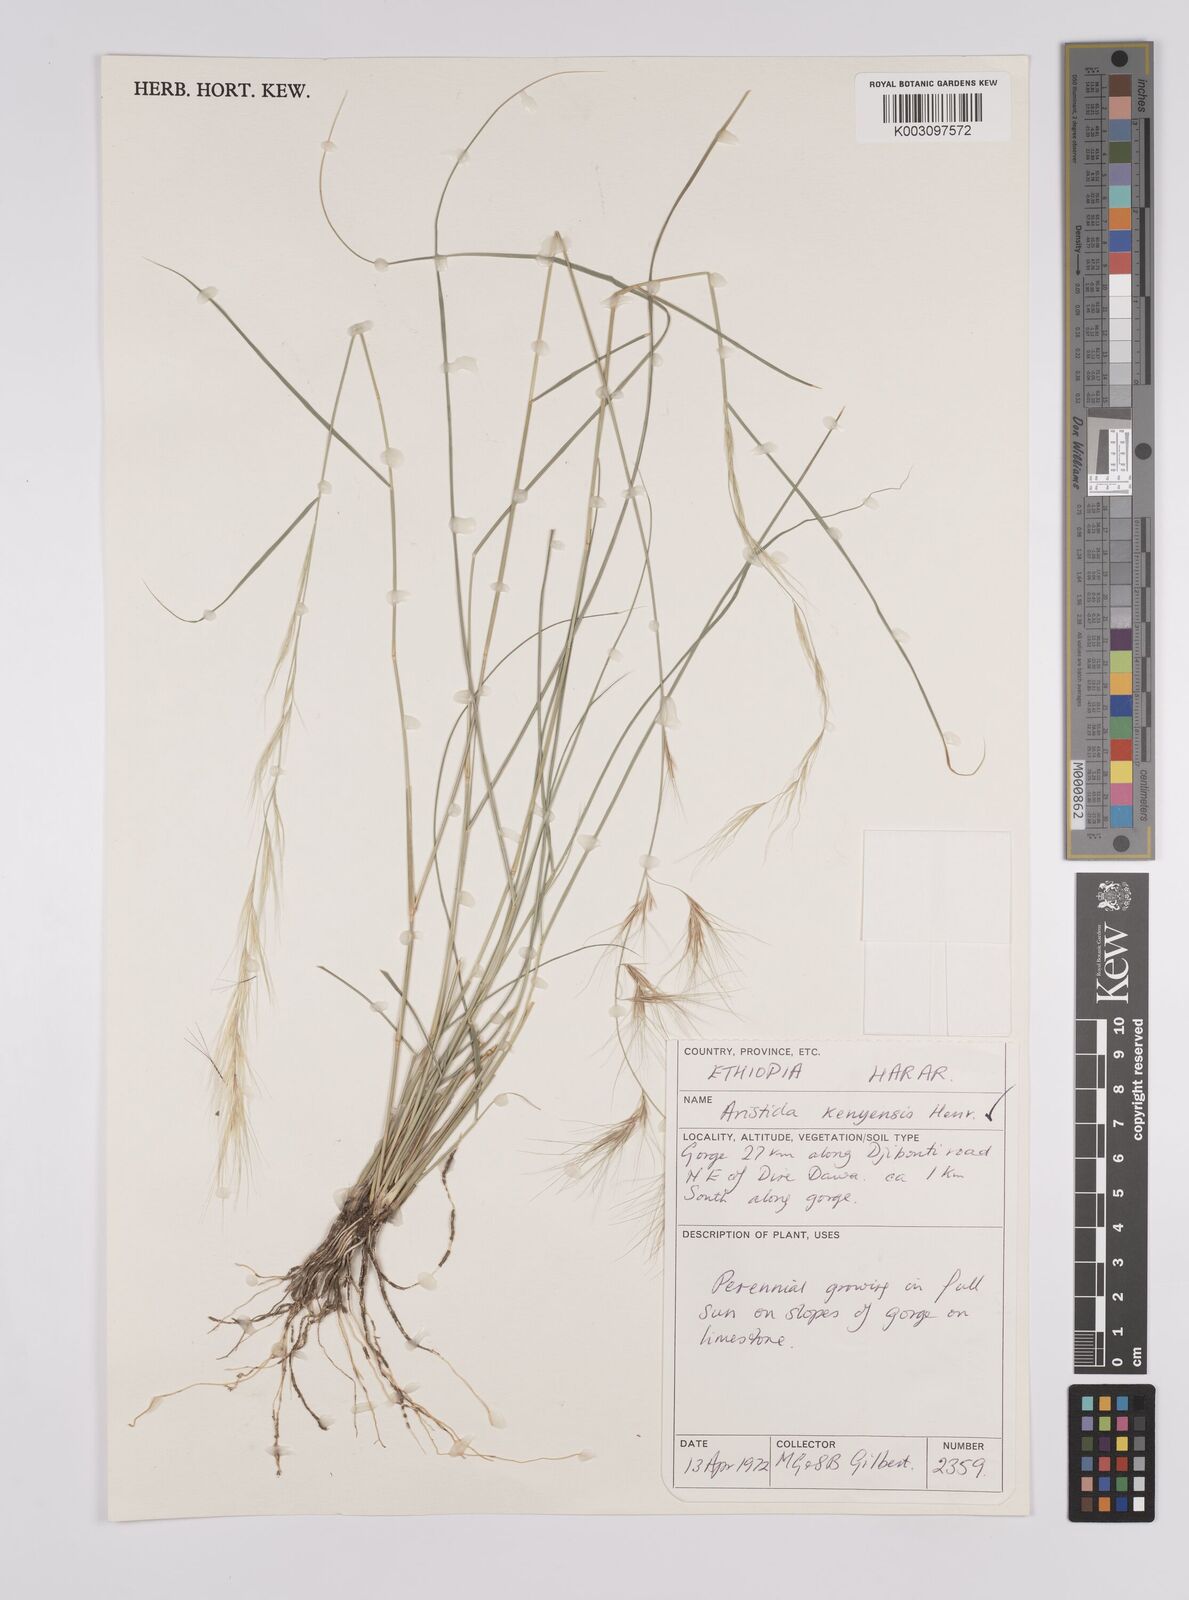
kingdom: Plantae
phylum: Tracheophyta
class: Liliopsida
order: Poales
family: Poaceae
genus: Aristida
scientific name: Aristida kenyensis
